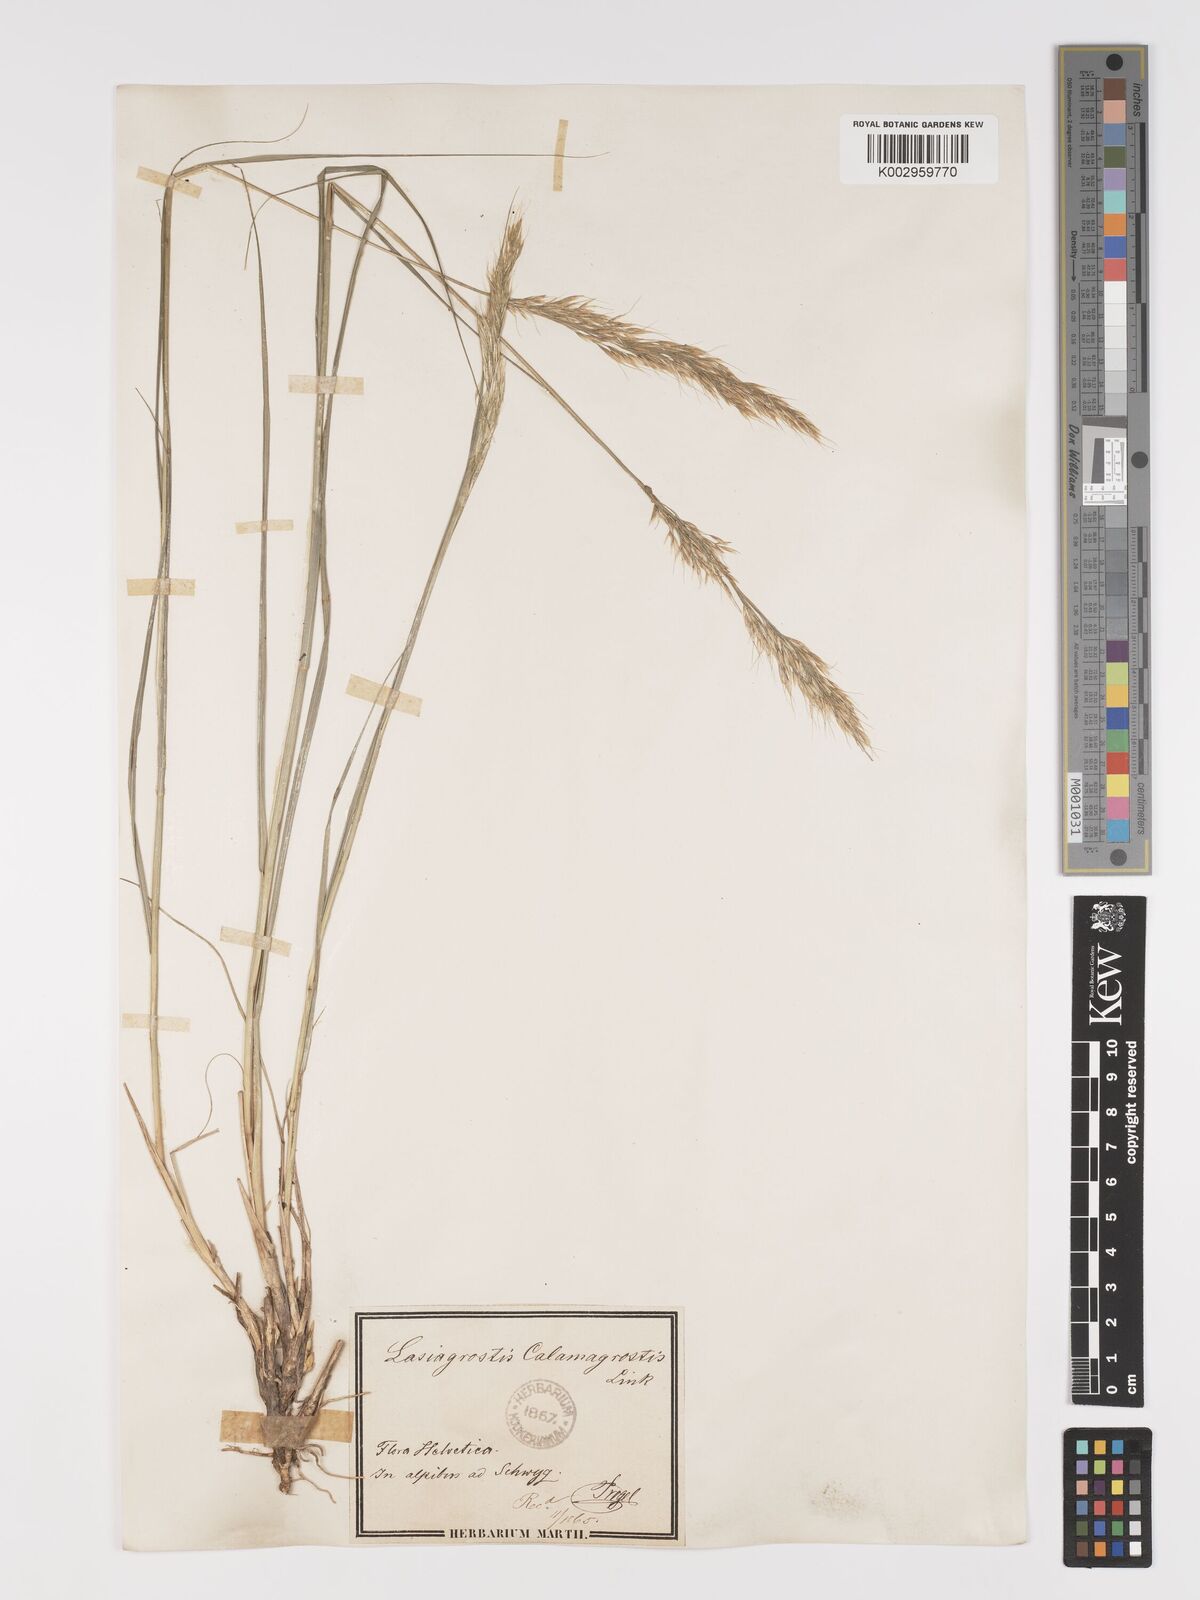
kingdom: Plantae
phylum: Tracheophyta
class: Liliopsida
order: Poales
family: Poaceae
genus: Achnatherum
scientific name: Achnatherum calamagrostis
